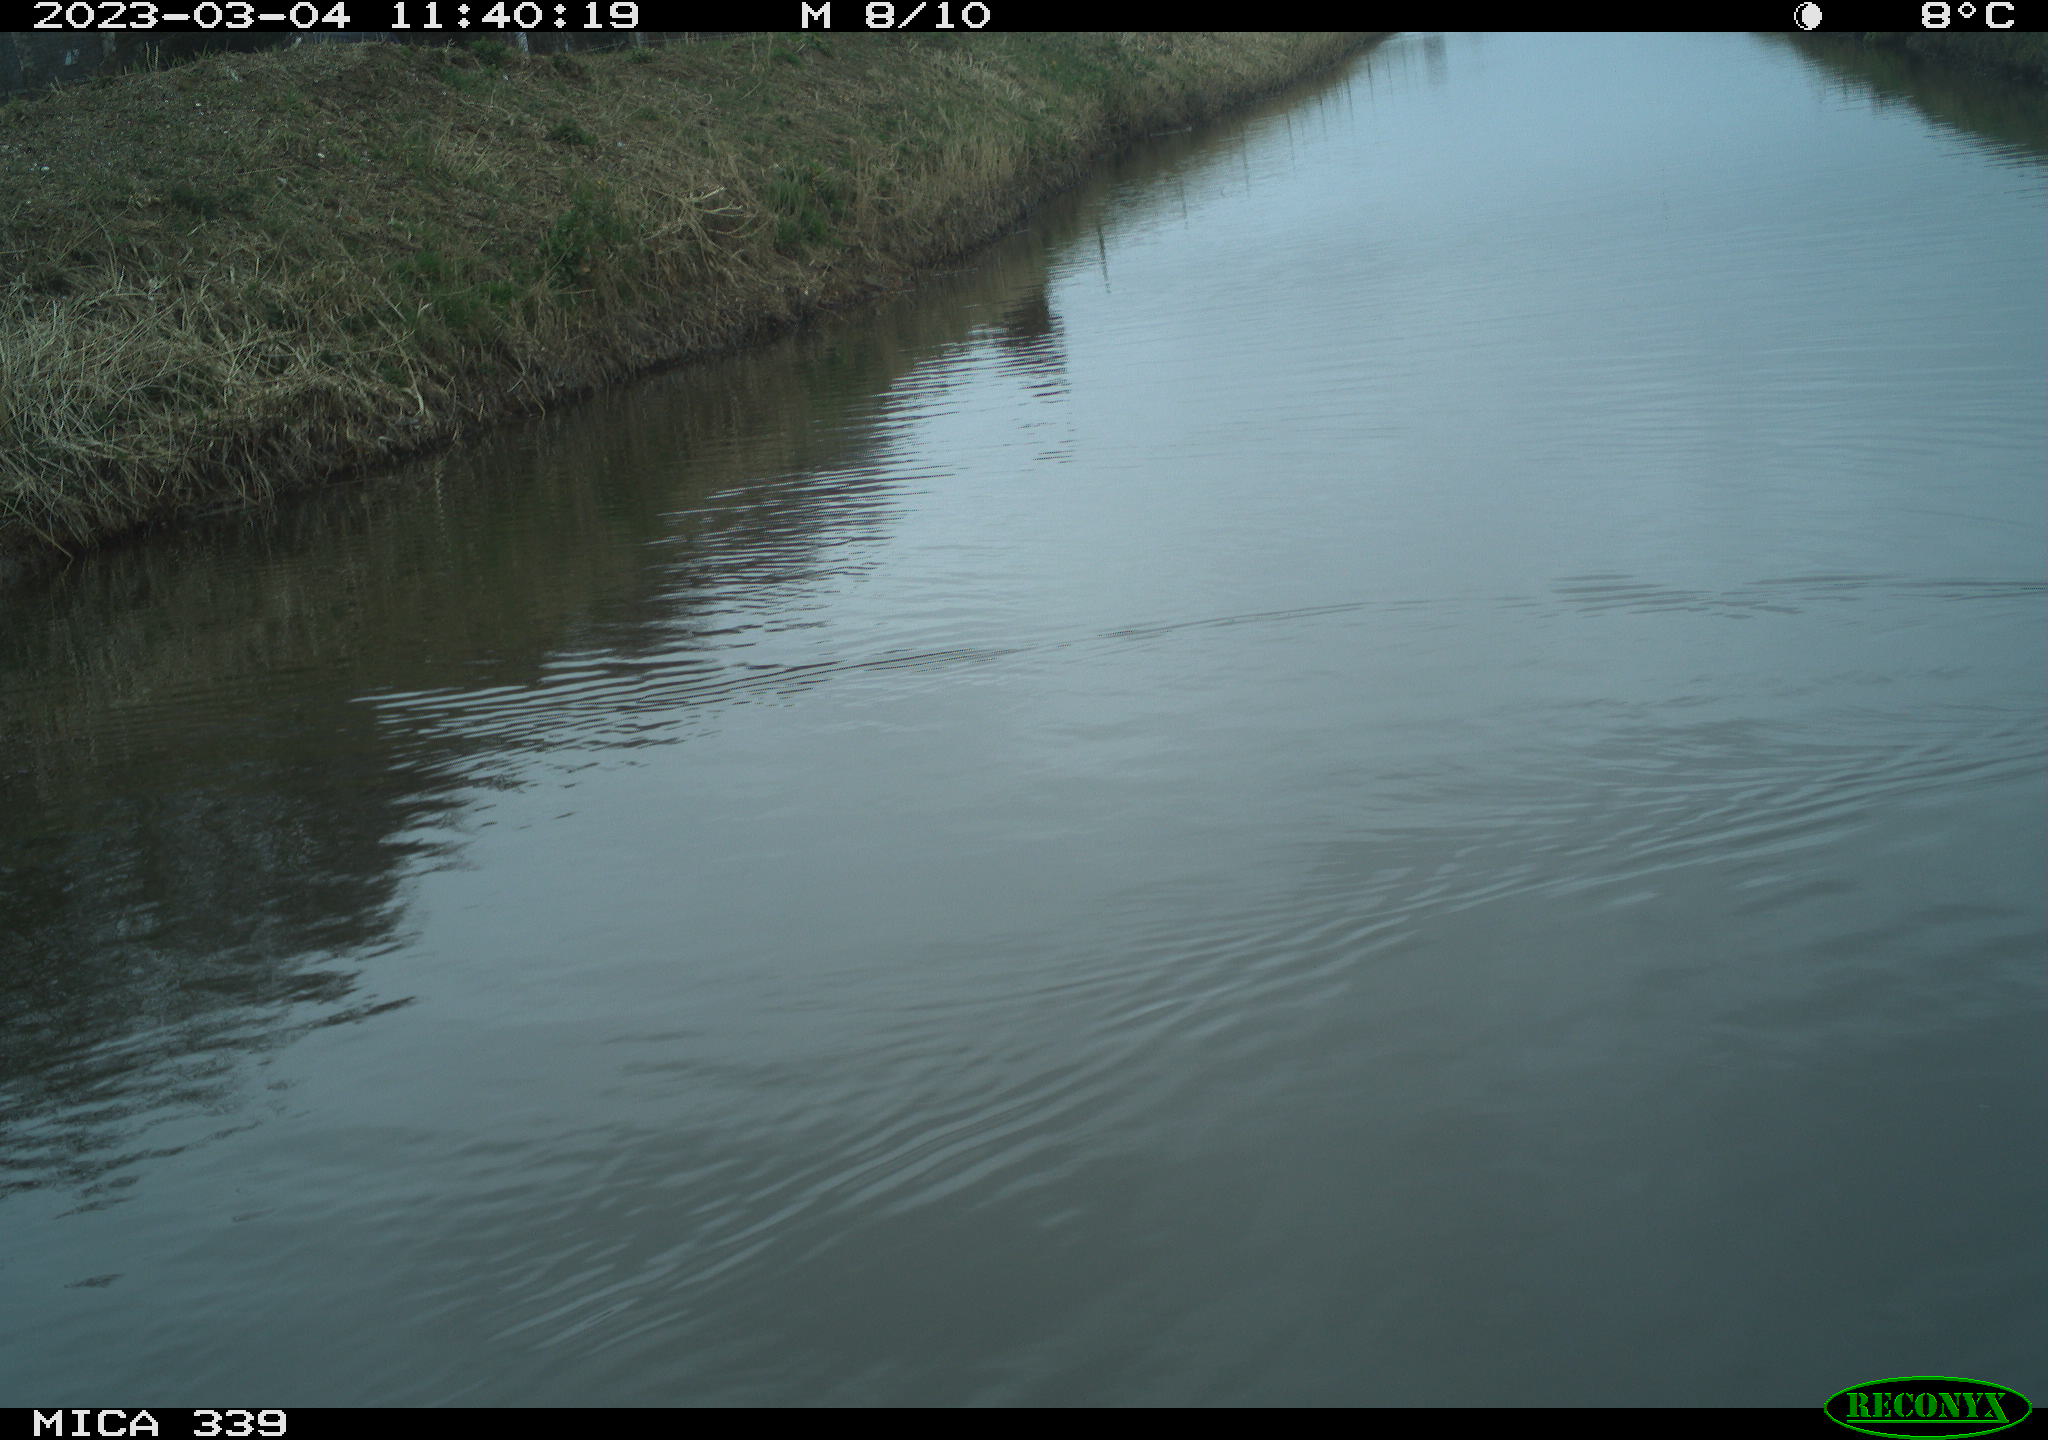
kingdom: Animalia
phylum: Chordata
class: Aves
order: Gruiformes
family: Rallidae
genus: Gallinula
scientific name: Gallinula chloropus
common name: Common moorhen
